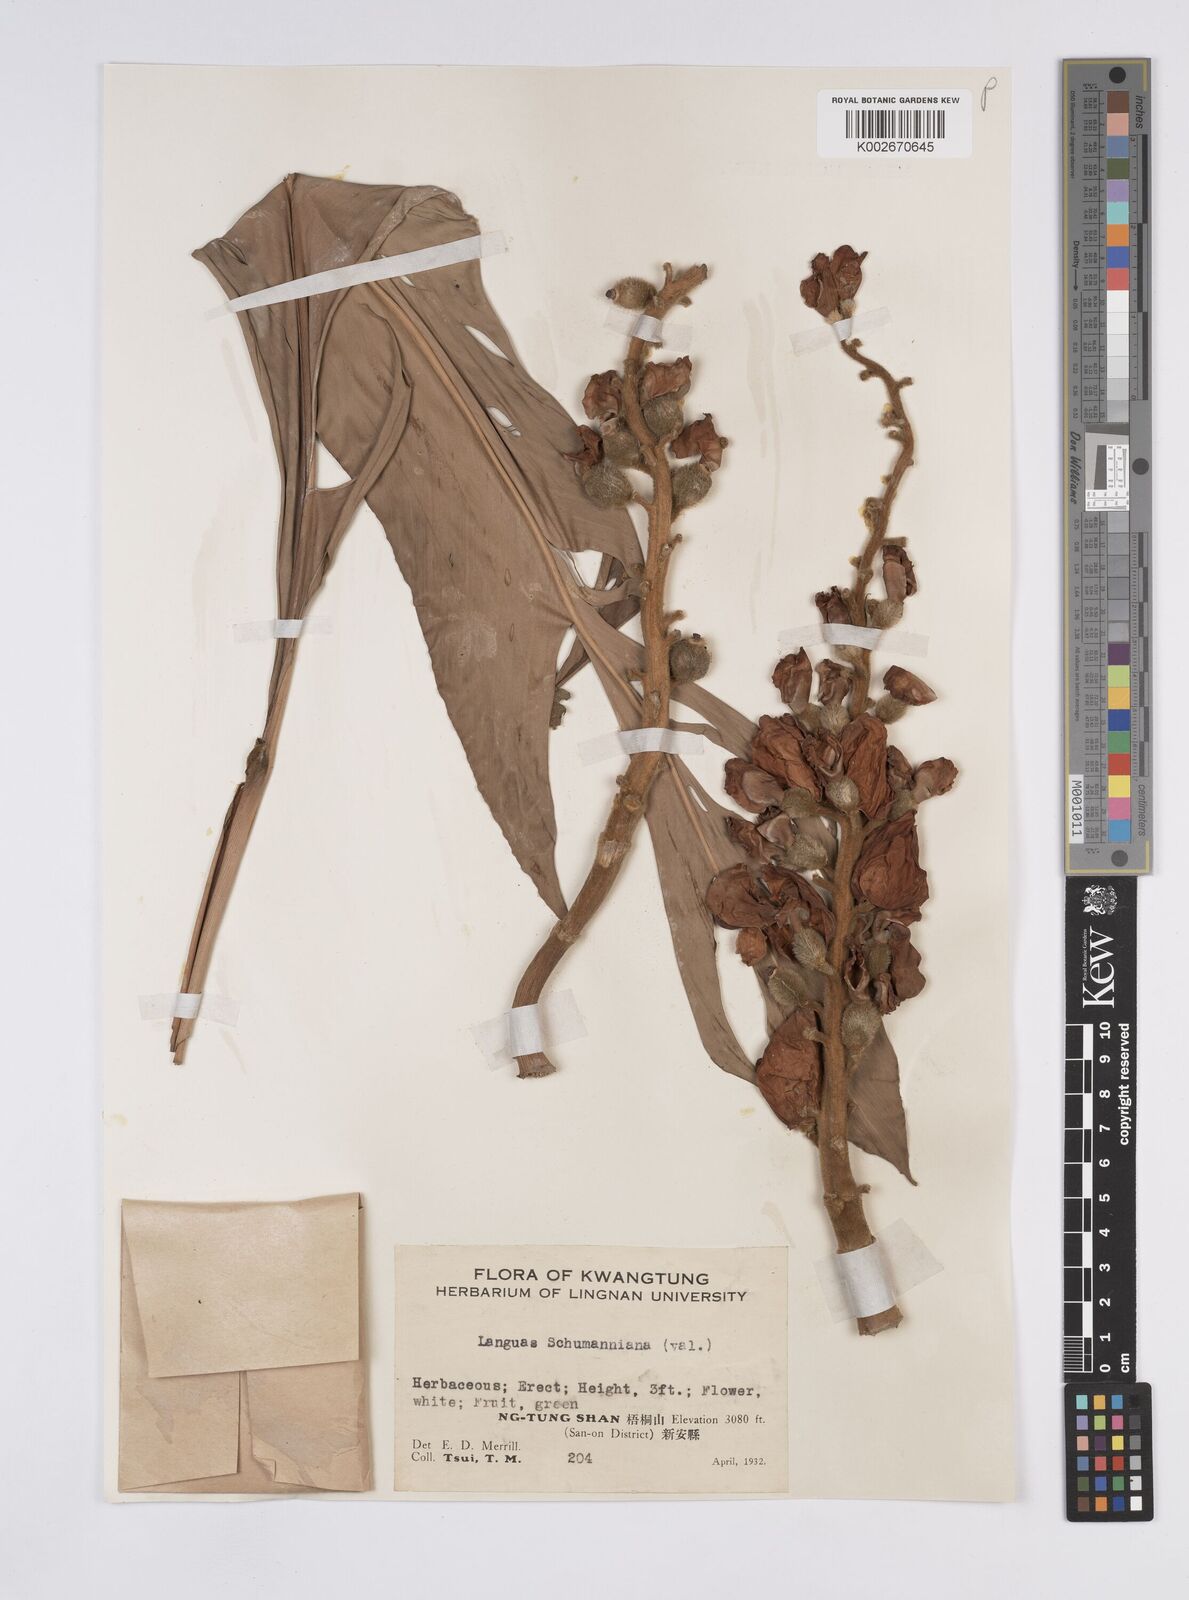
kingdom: Plantae
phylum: Tracheophyta
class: Liliopsida
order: Zingiberales
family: Zingiberaceae
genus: Alpinia
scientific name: Alpinia zerumbet
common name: Shellplant
